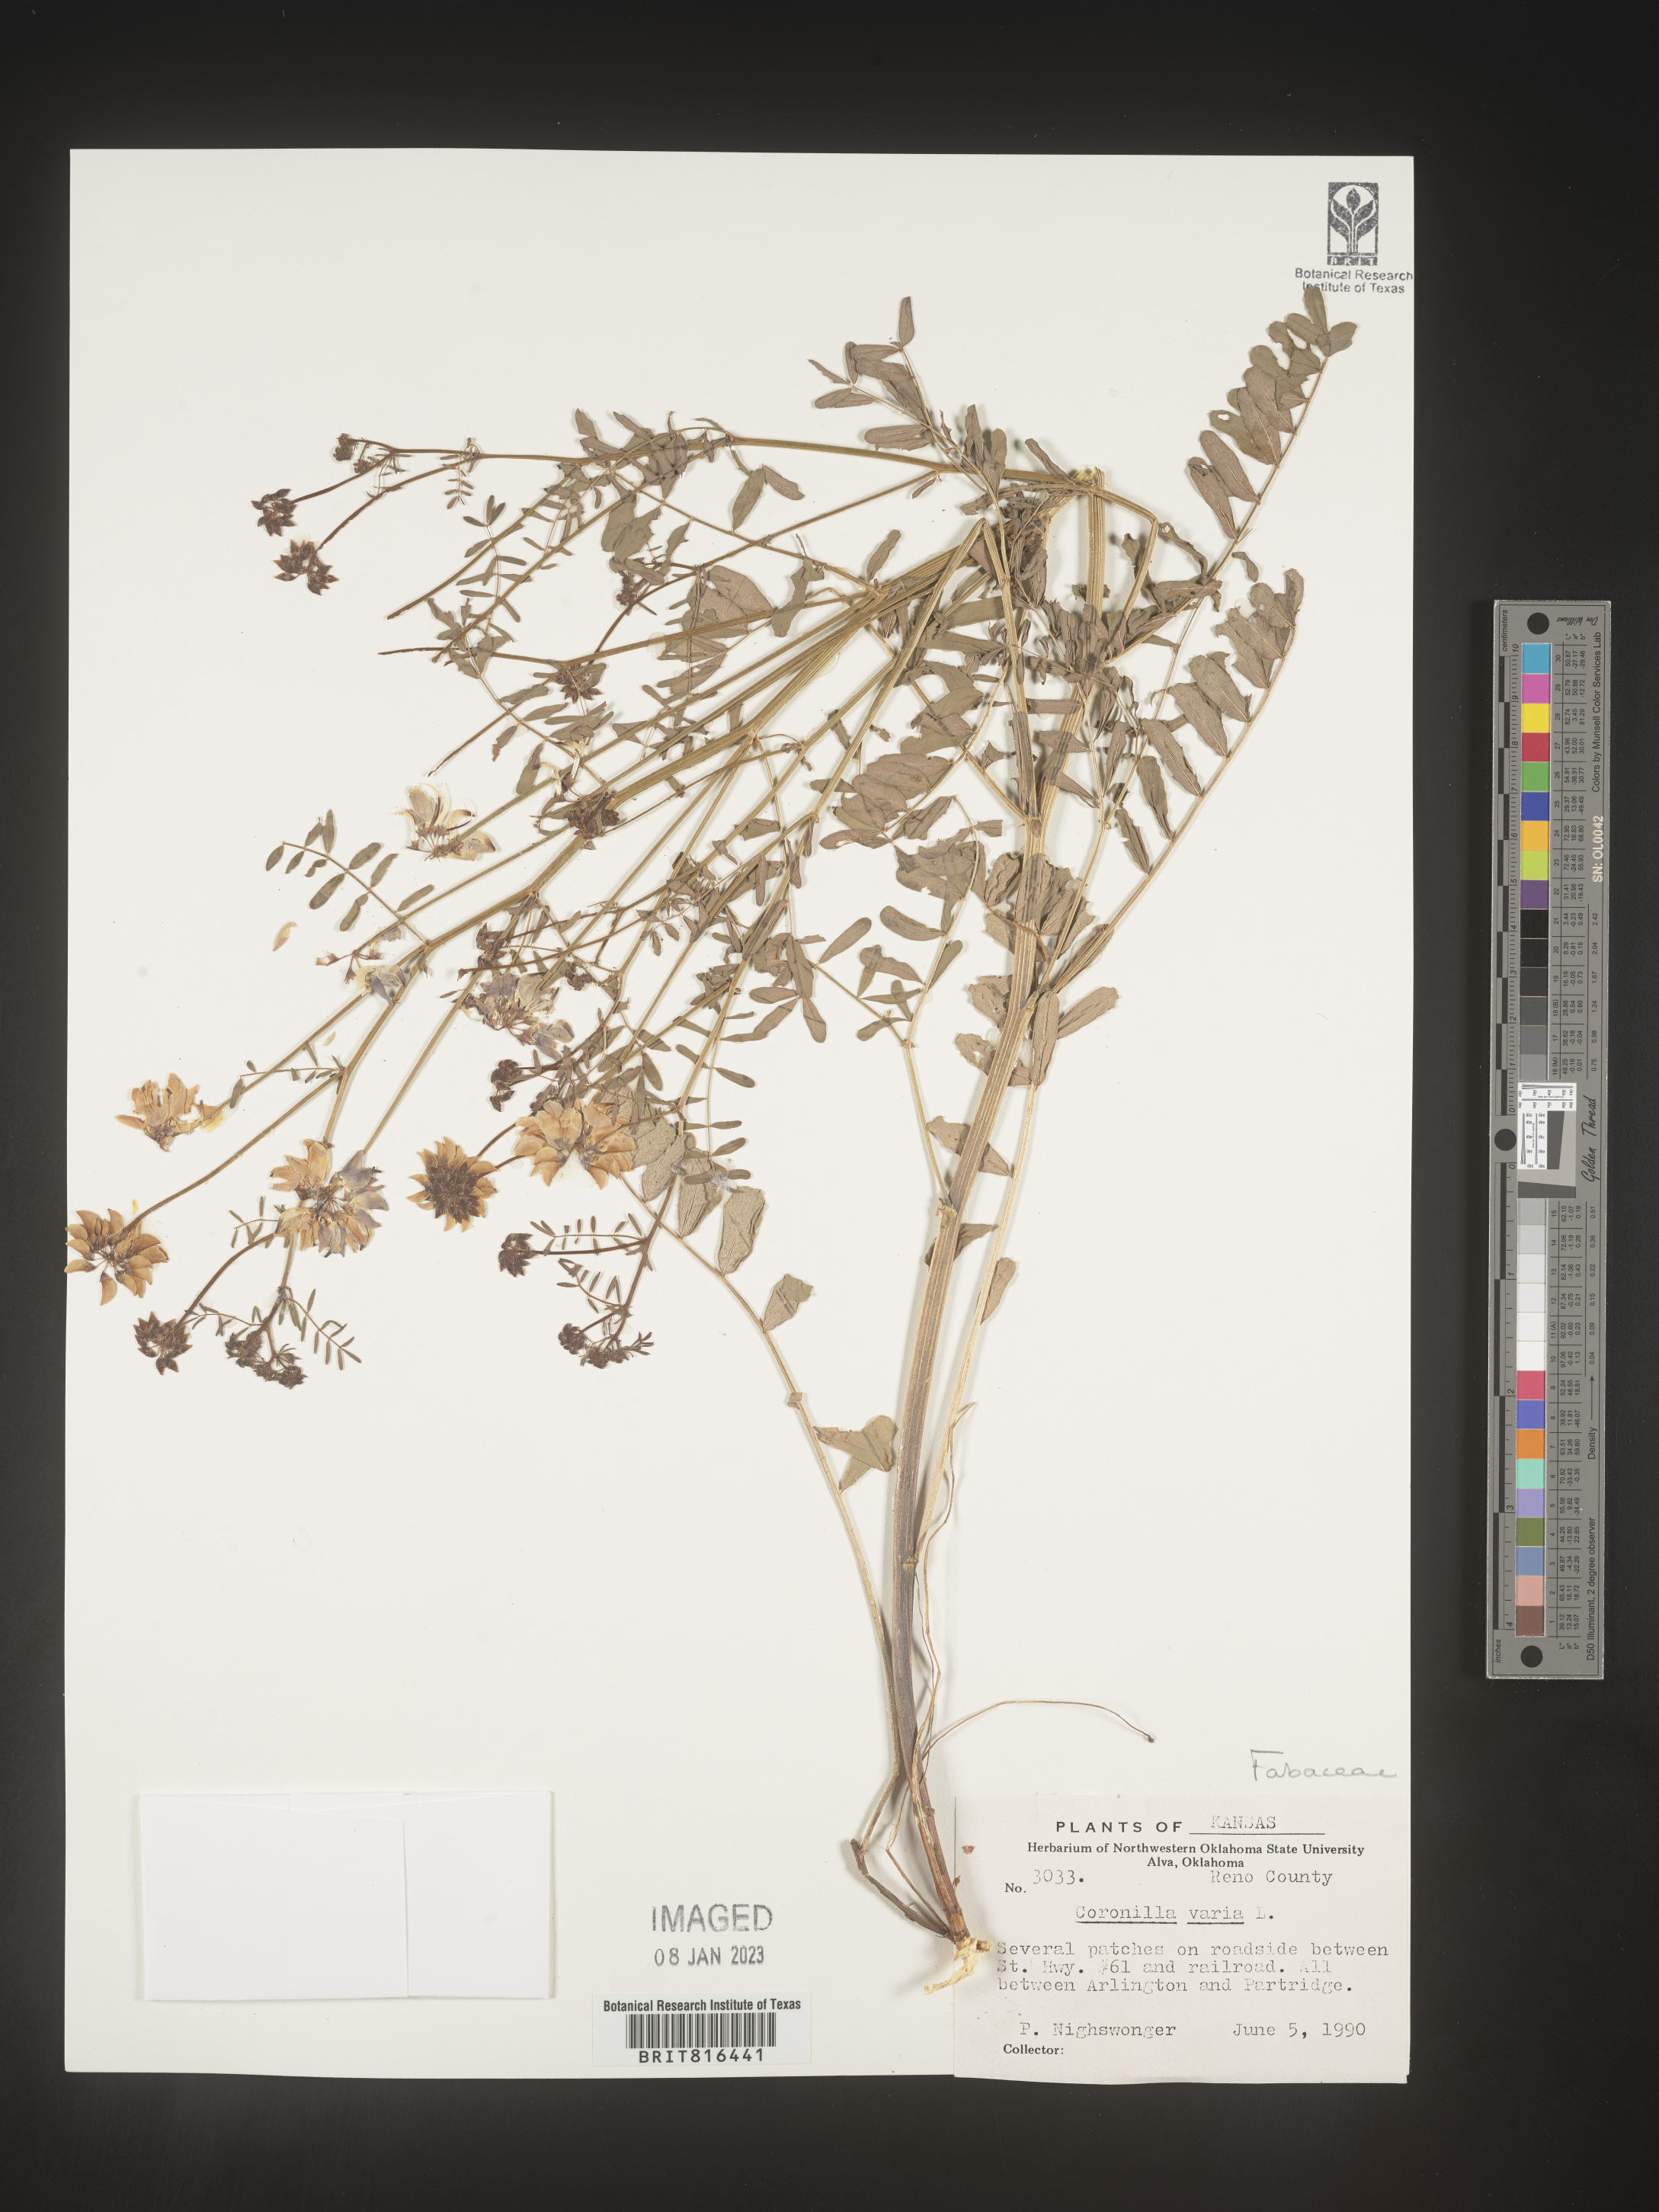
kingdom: Plantae
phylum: Tracheophyta
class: Magnoliopsida
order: Fabales
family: Fabaceae
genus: Coronilla
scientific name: Coronilla
